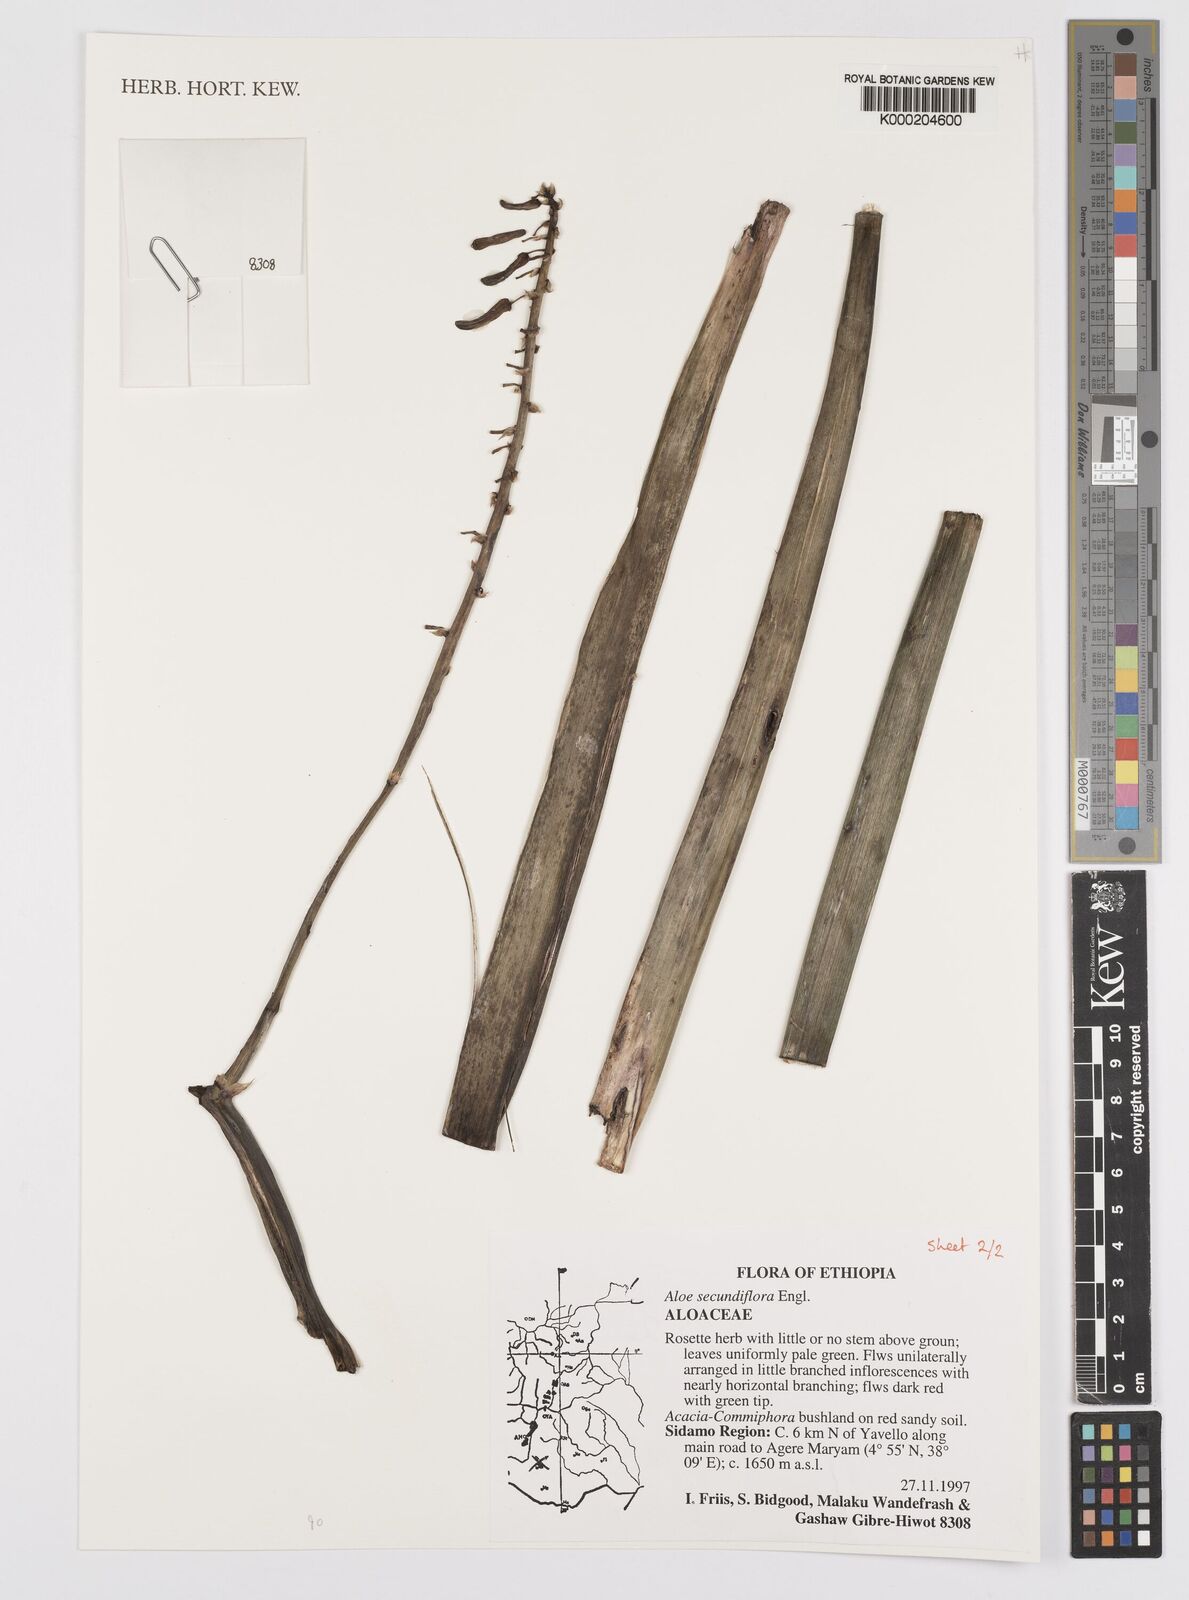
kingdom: Plantae
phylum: Tracheophyta
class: Liliopsida
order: Asparagales
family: Asphodelaceae
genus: Aloe
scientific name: Aloe secundiflora
